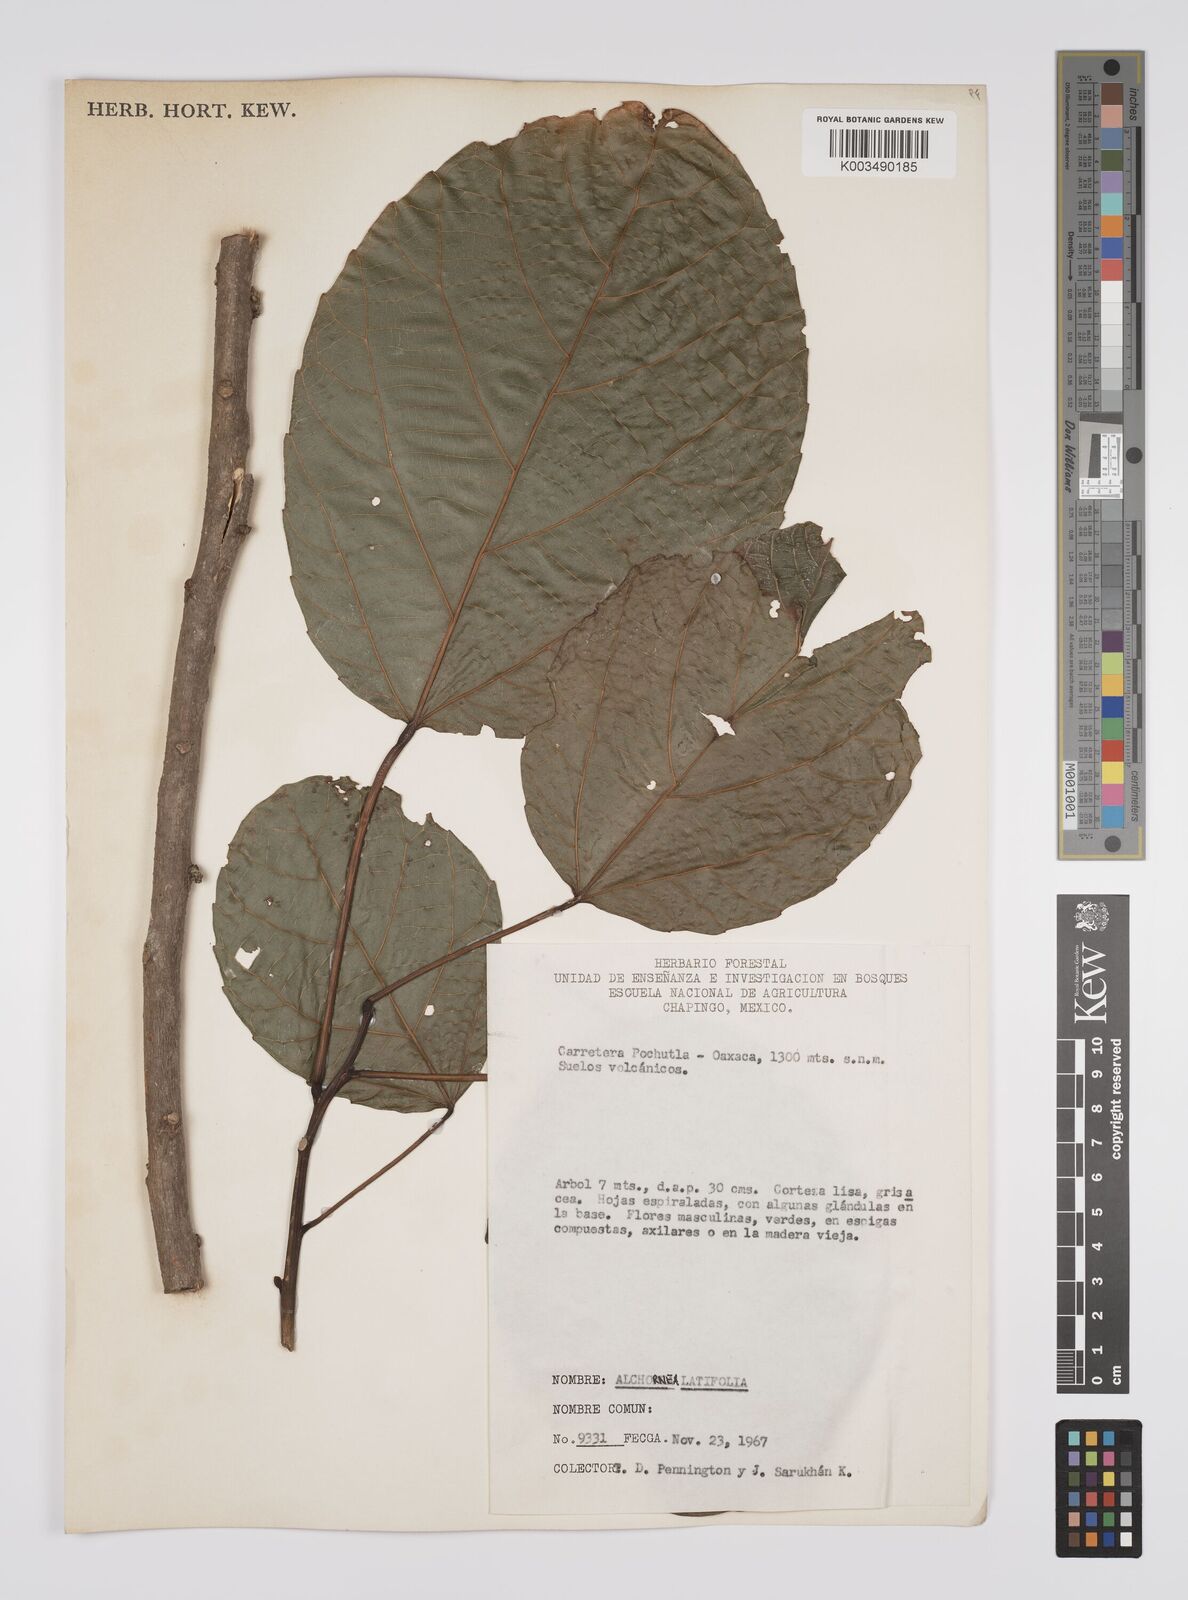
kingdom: Plantae
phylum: Tracheophyta
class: Magnoliopsida
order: Malpighiales
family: Euphorbiaceae
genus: Alchornea
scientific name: Alchornea latifolia
